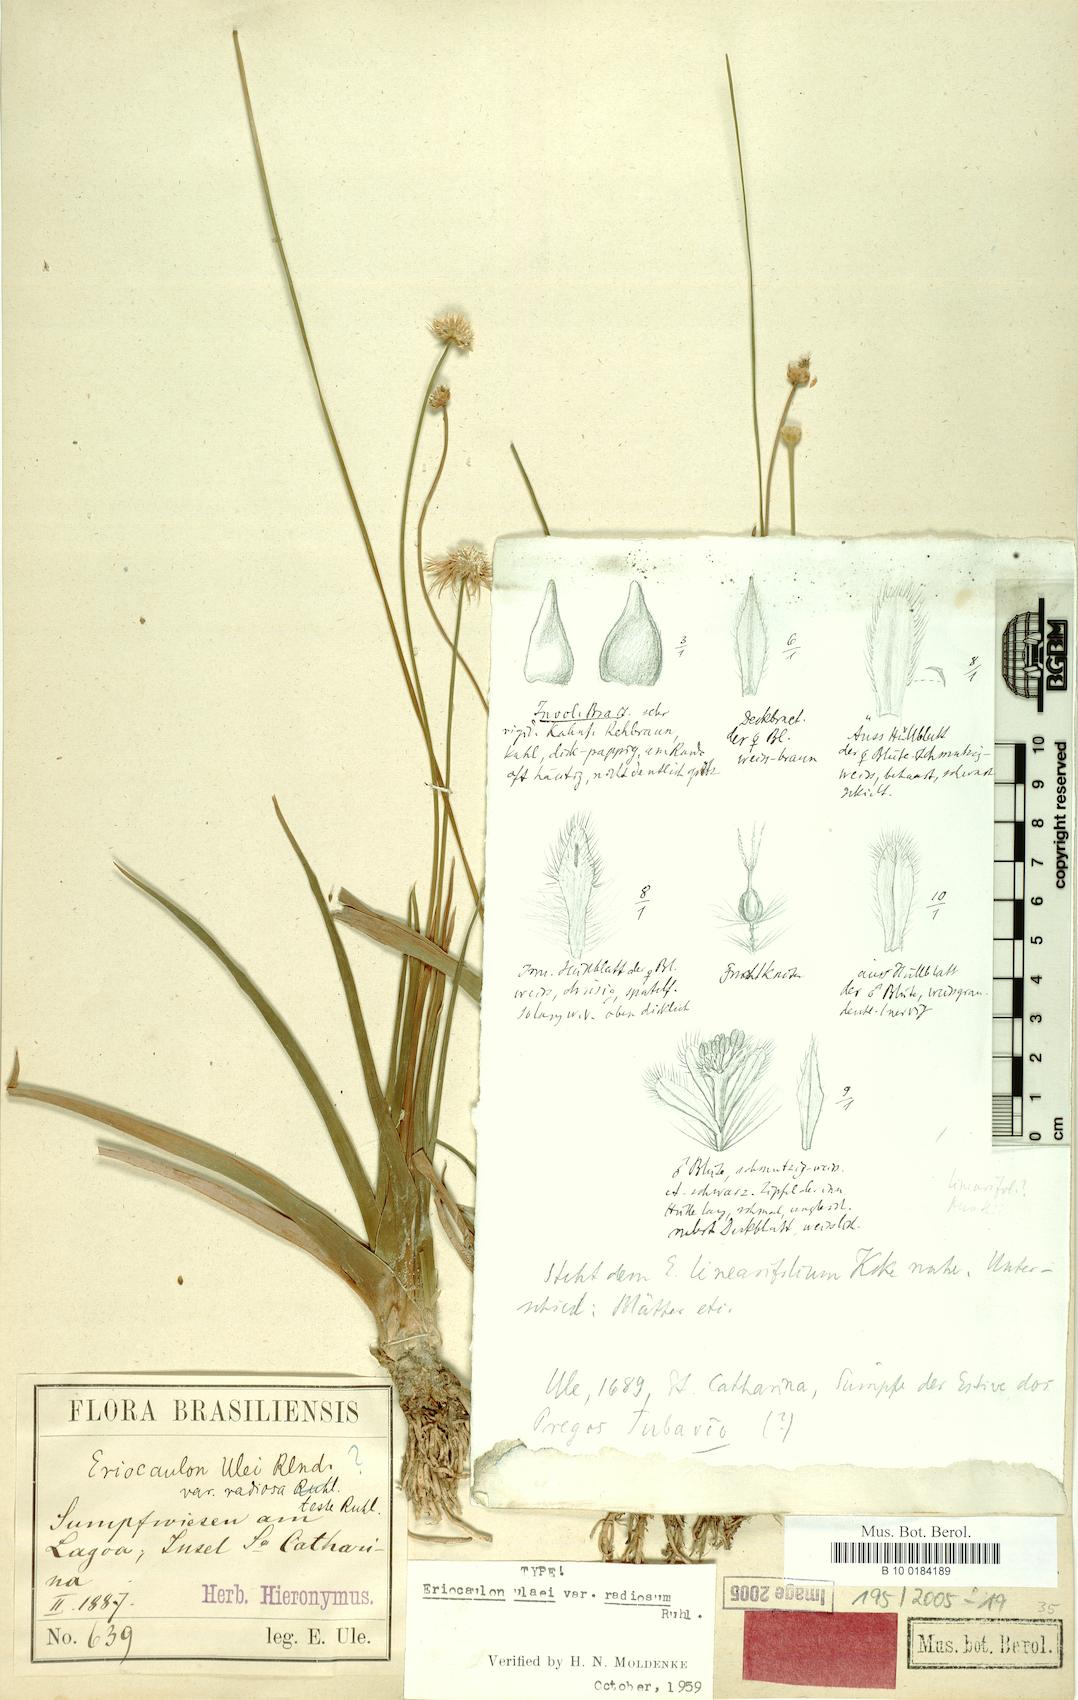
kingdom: Plantae
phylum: Tracheophyta
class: Liliopsida
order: Poales
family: Eriocaulaceae
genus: Eriocaulon
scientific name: Eriocaulon radiosum
